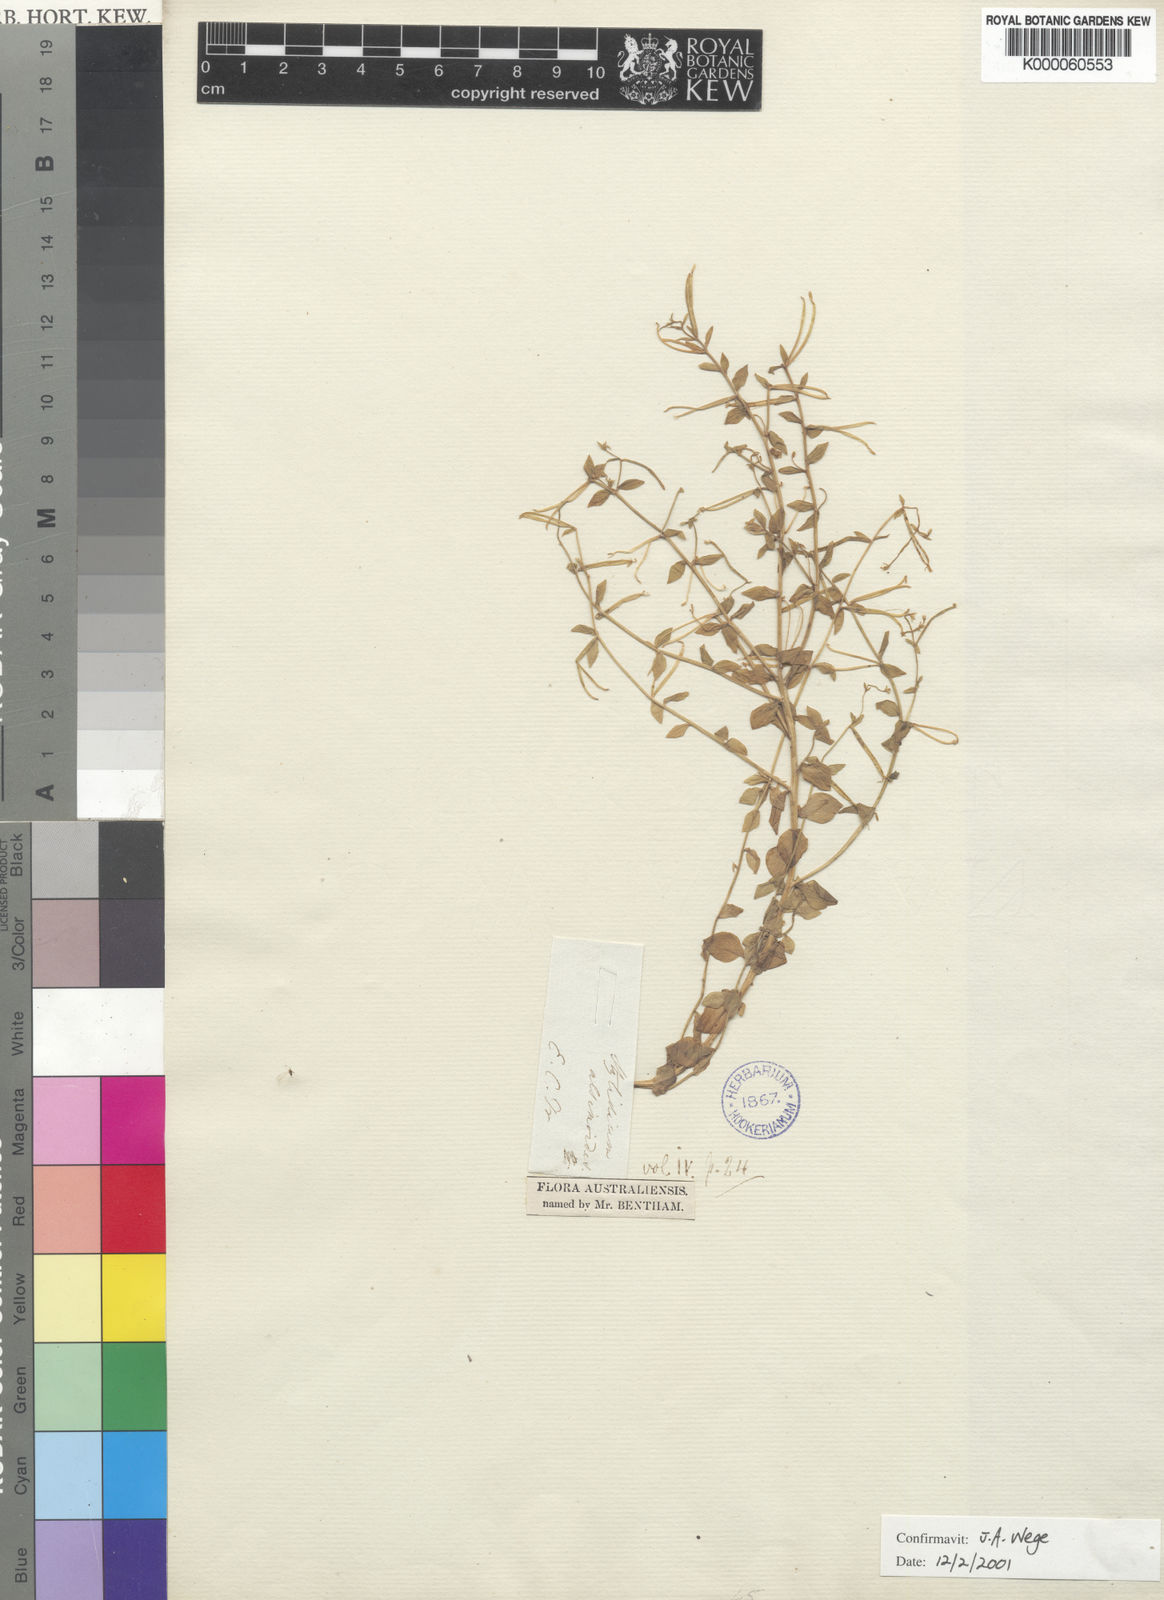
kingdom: Plantae
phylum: Tracheophyta
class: Magnoliopsida
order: Asterales
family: Stylidiaceae
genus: Stylidium
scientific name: Stylidium alsinoides
